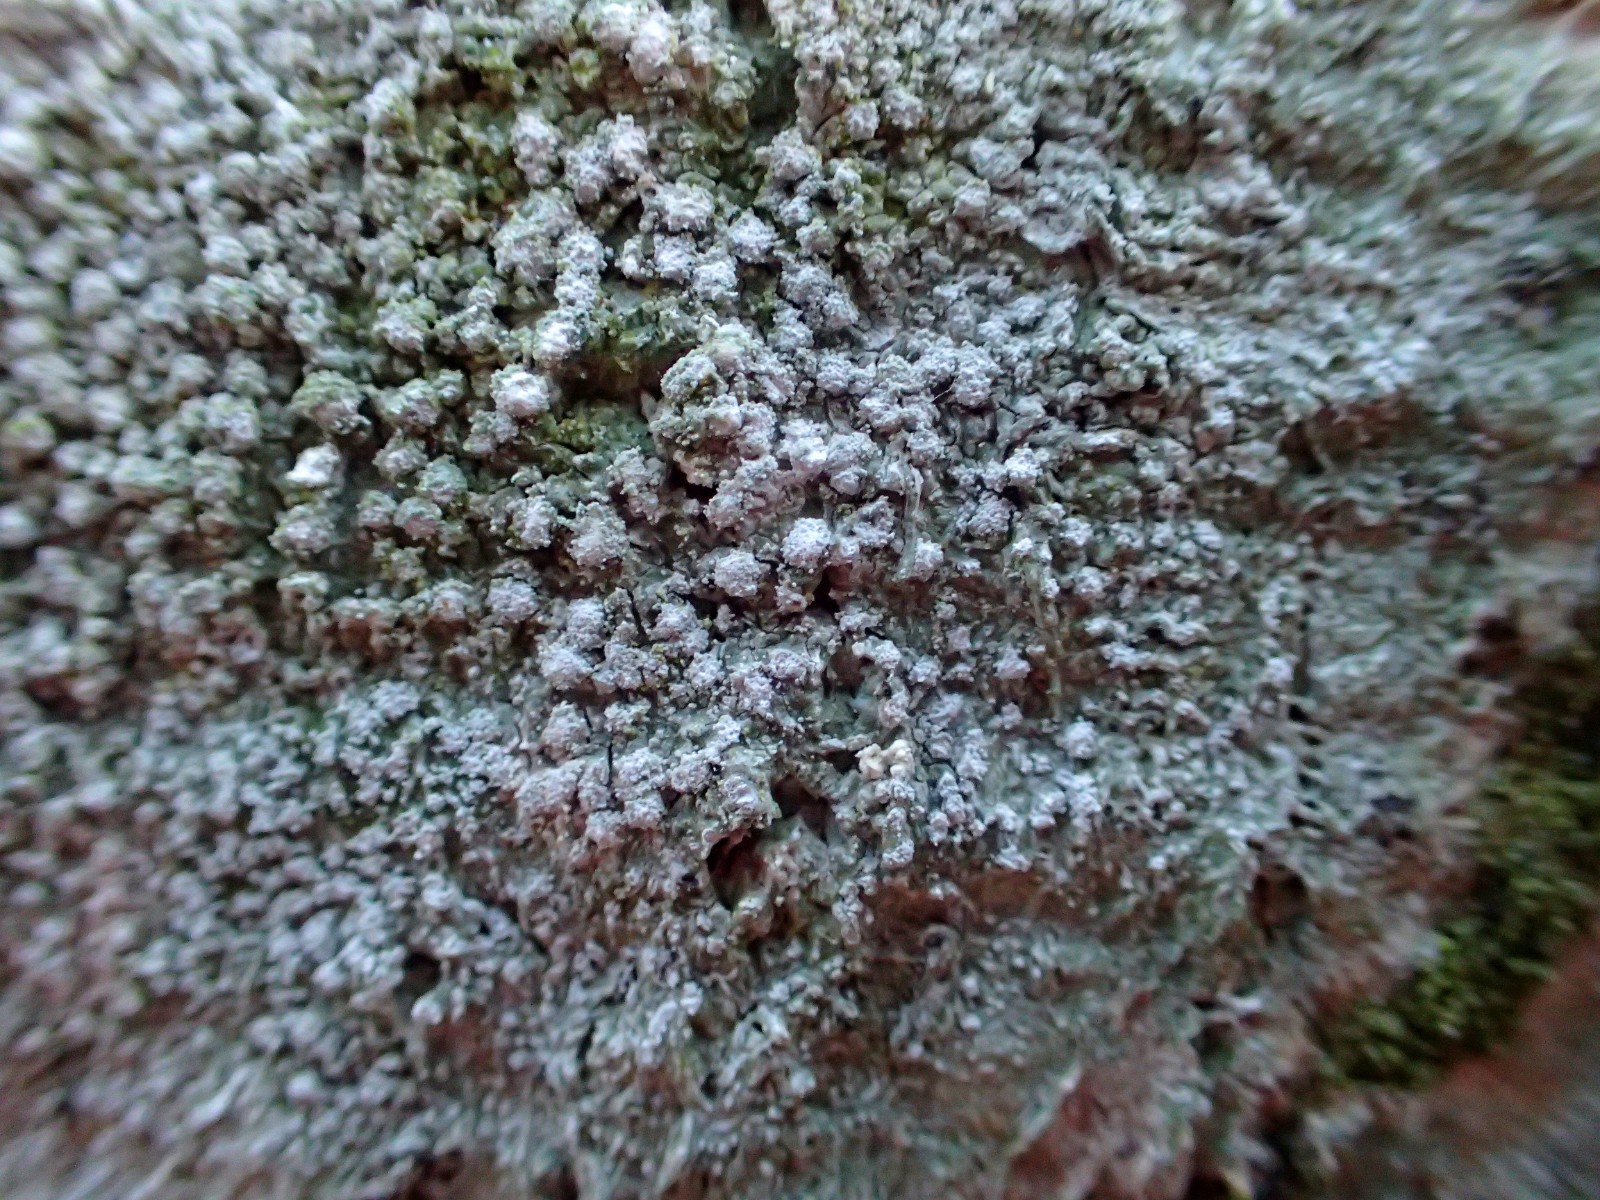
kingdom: Fungi
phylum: Ascomycota
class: Lecanoromycetes
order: Pertusariales
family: Pertusariaceae
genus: Lepra
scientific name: Lepra amara
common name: bitter prikvortelav
